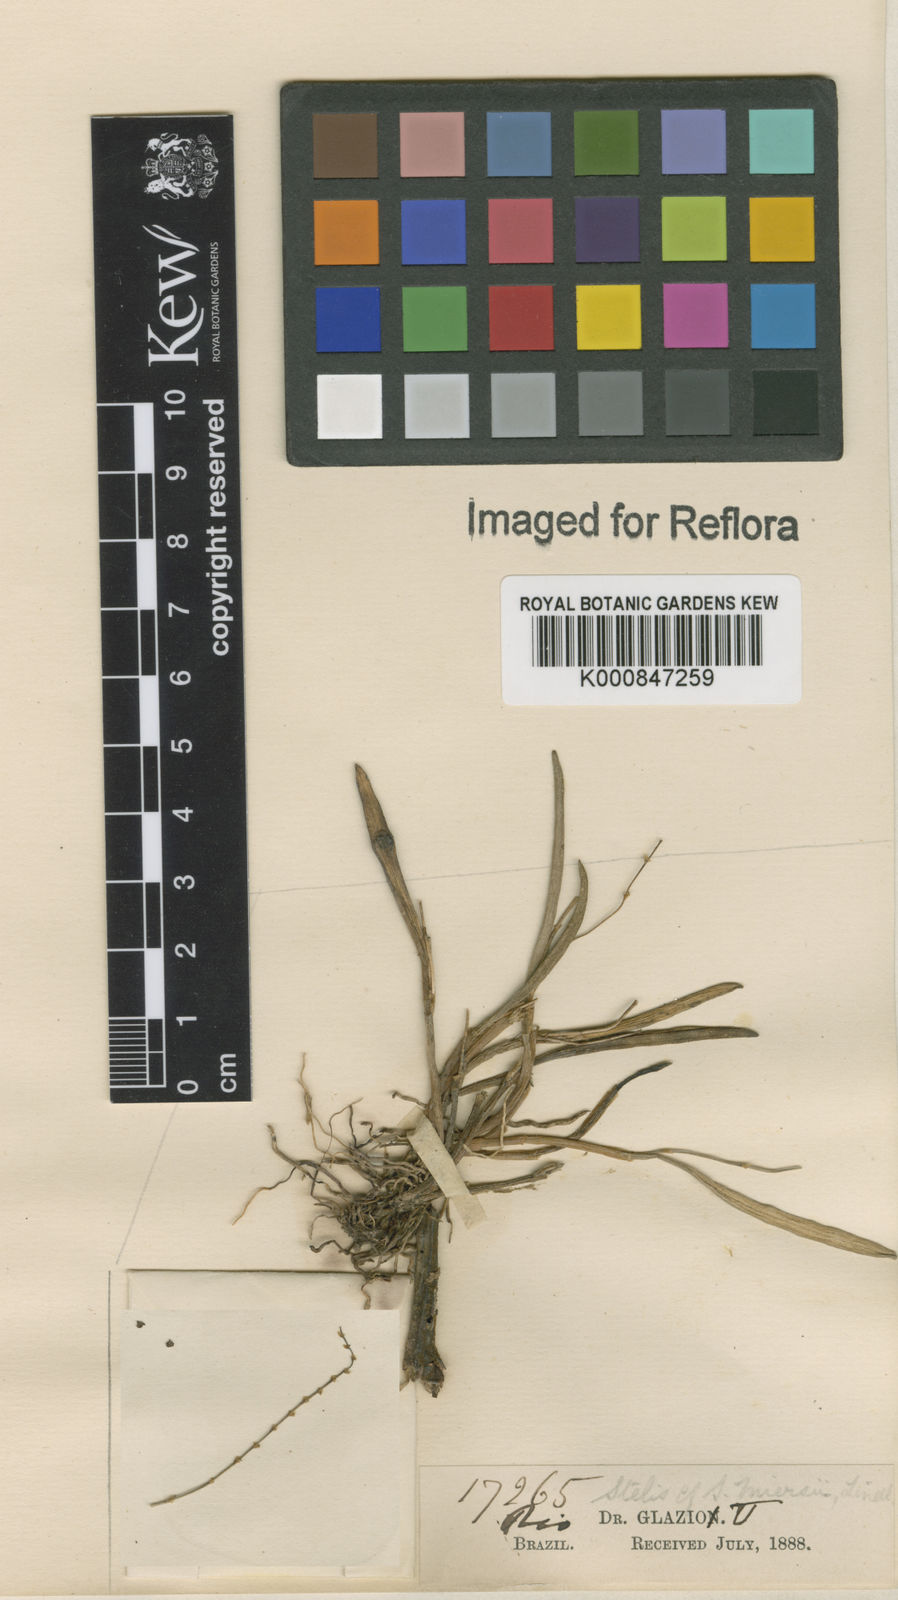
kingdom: Plantae
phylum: Tracheophyta
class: Liliopsida
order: Asparagales
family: Orchidaceae
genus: Stelis
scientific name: Stelis aprica
